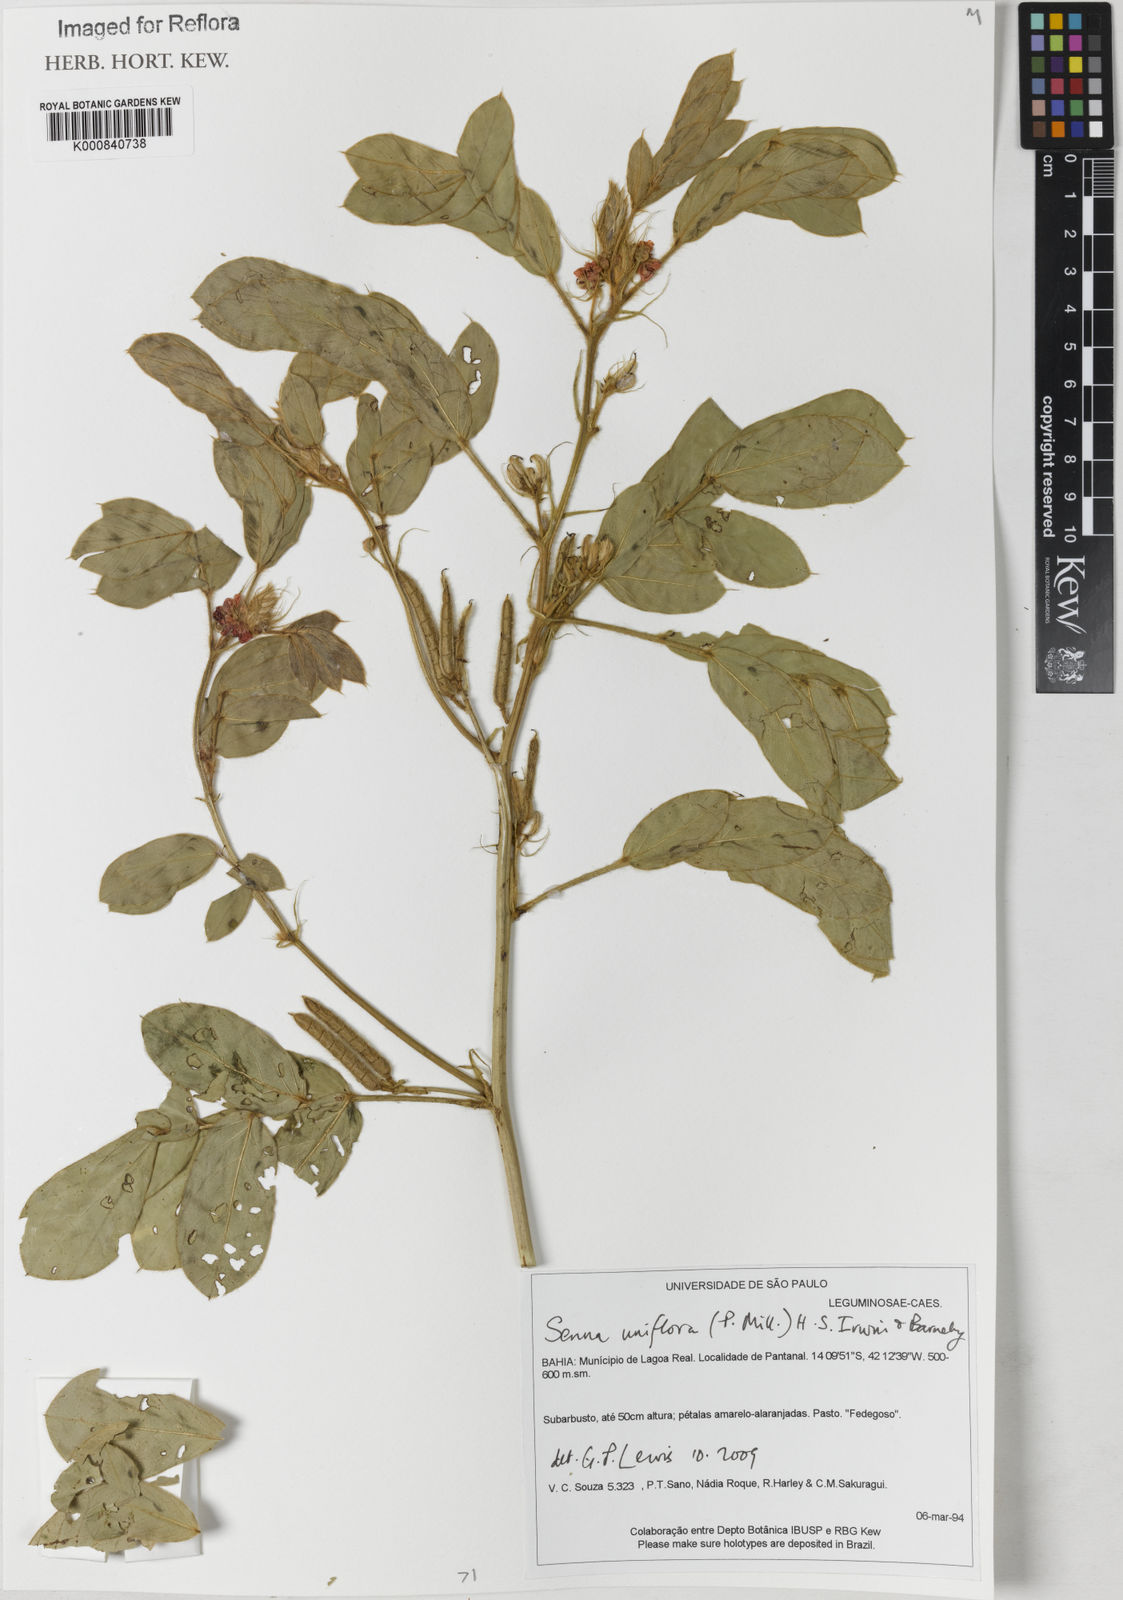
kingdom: Plantae
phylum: Tracheophyta
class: Magnoliopsida
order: Fabales
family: Fabaceae
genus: Senna
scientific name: Senna uniflora
